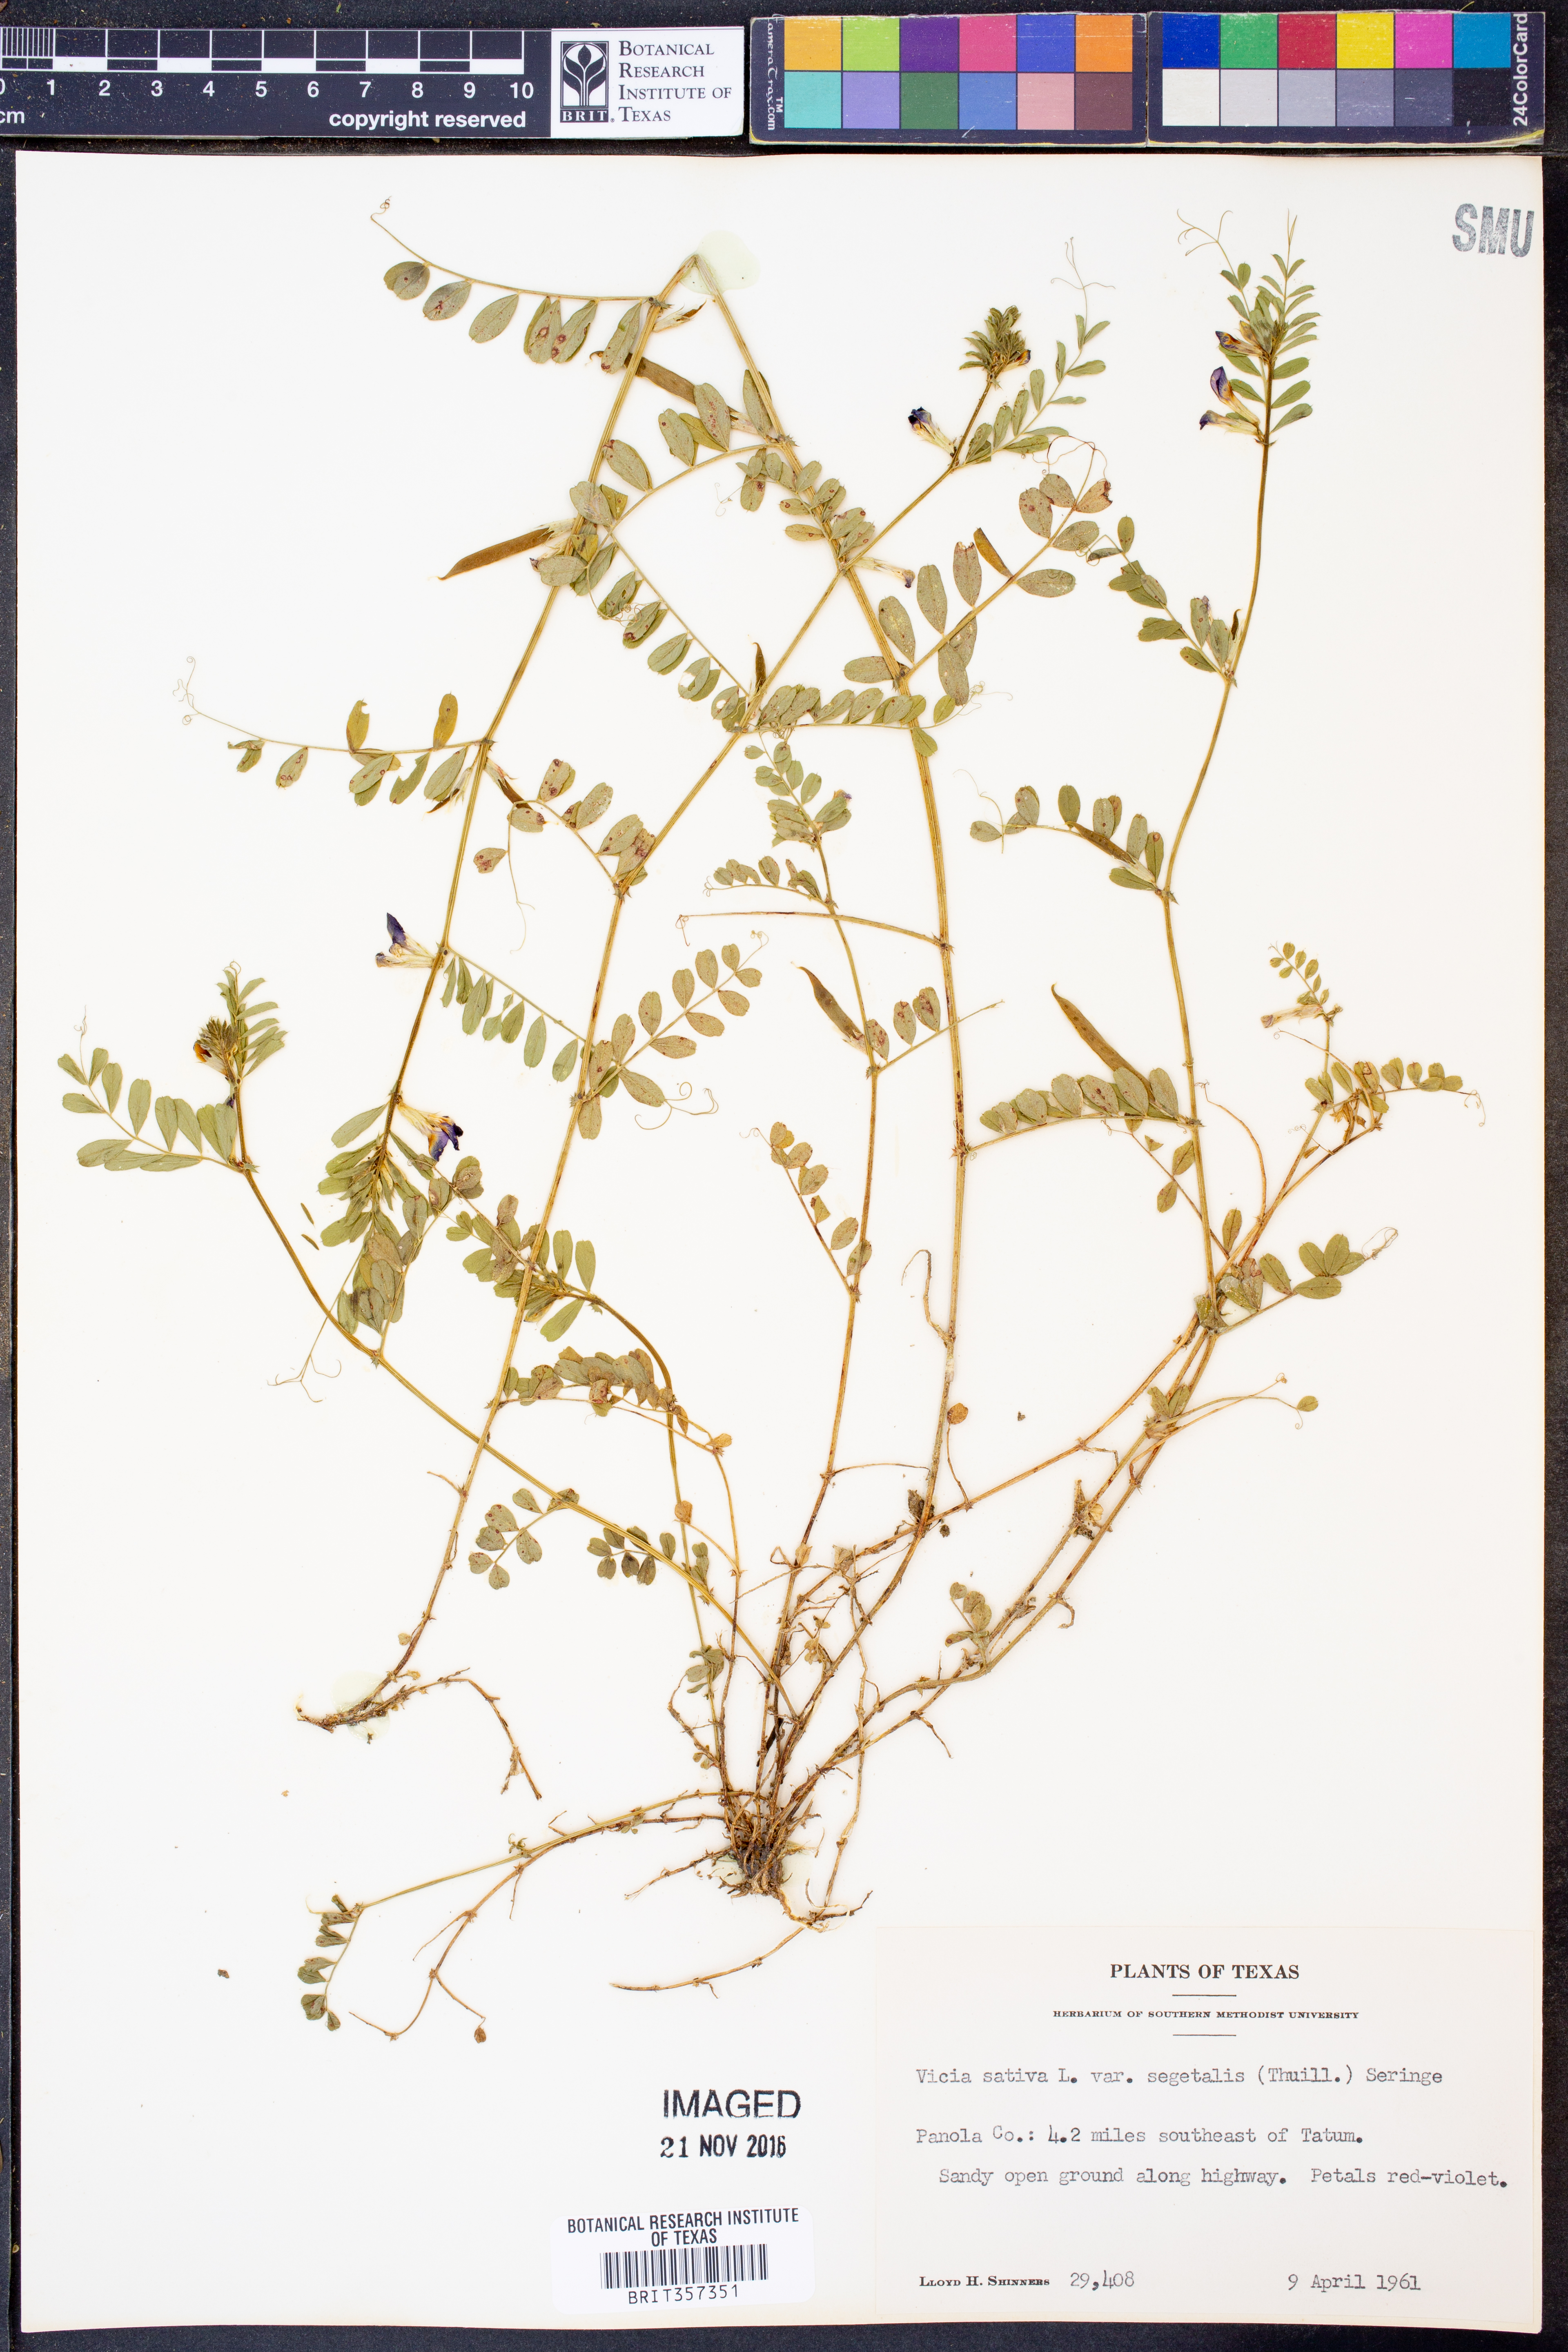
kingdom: Plantae
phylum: Tracheophyta
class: Magnoliopsida
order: Fabales
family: Fabaceae
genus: Vicia
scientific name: Vicia sativa
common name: Garden vetch
